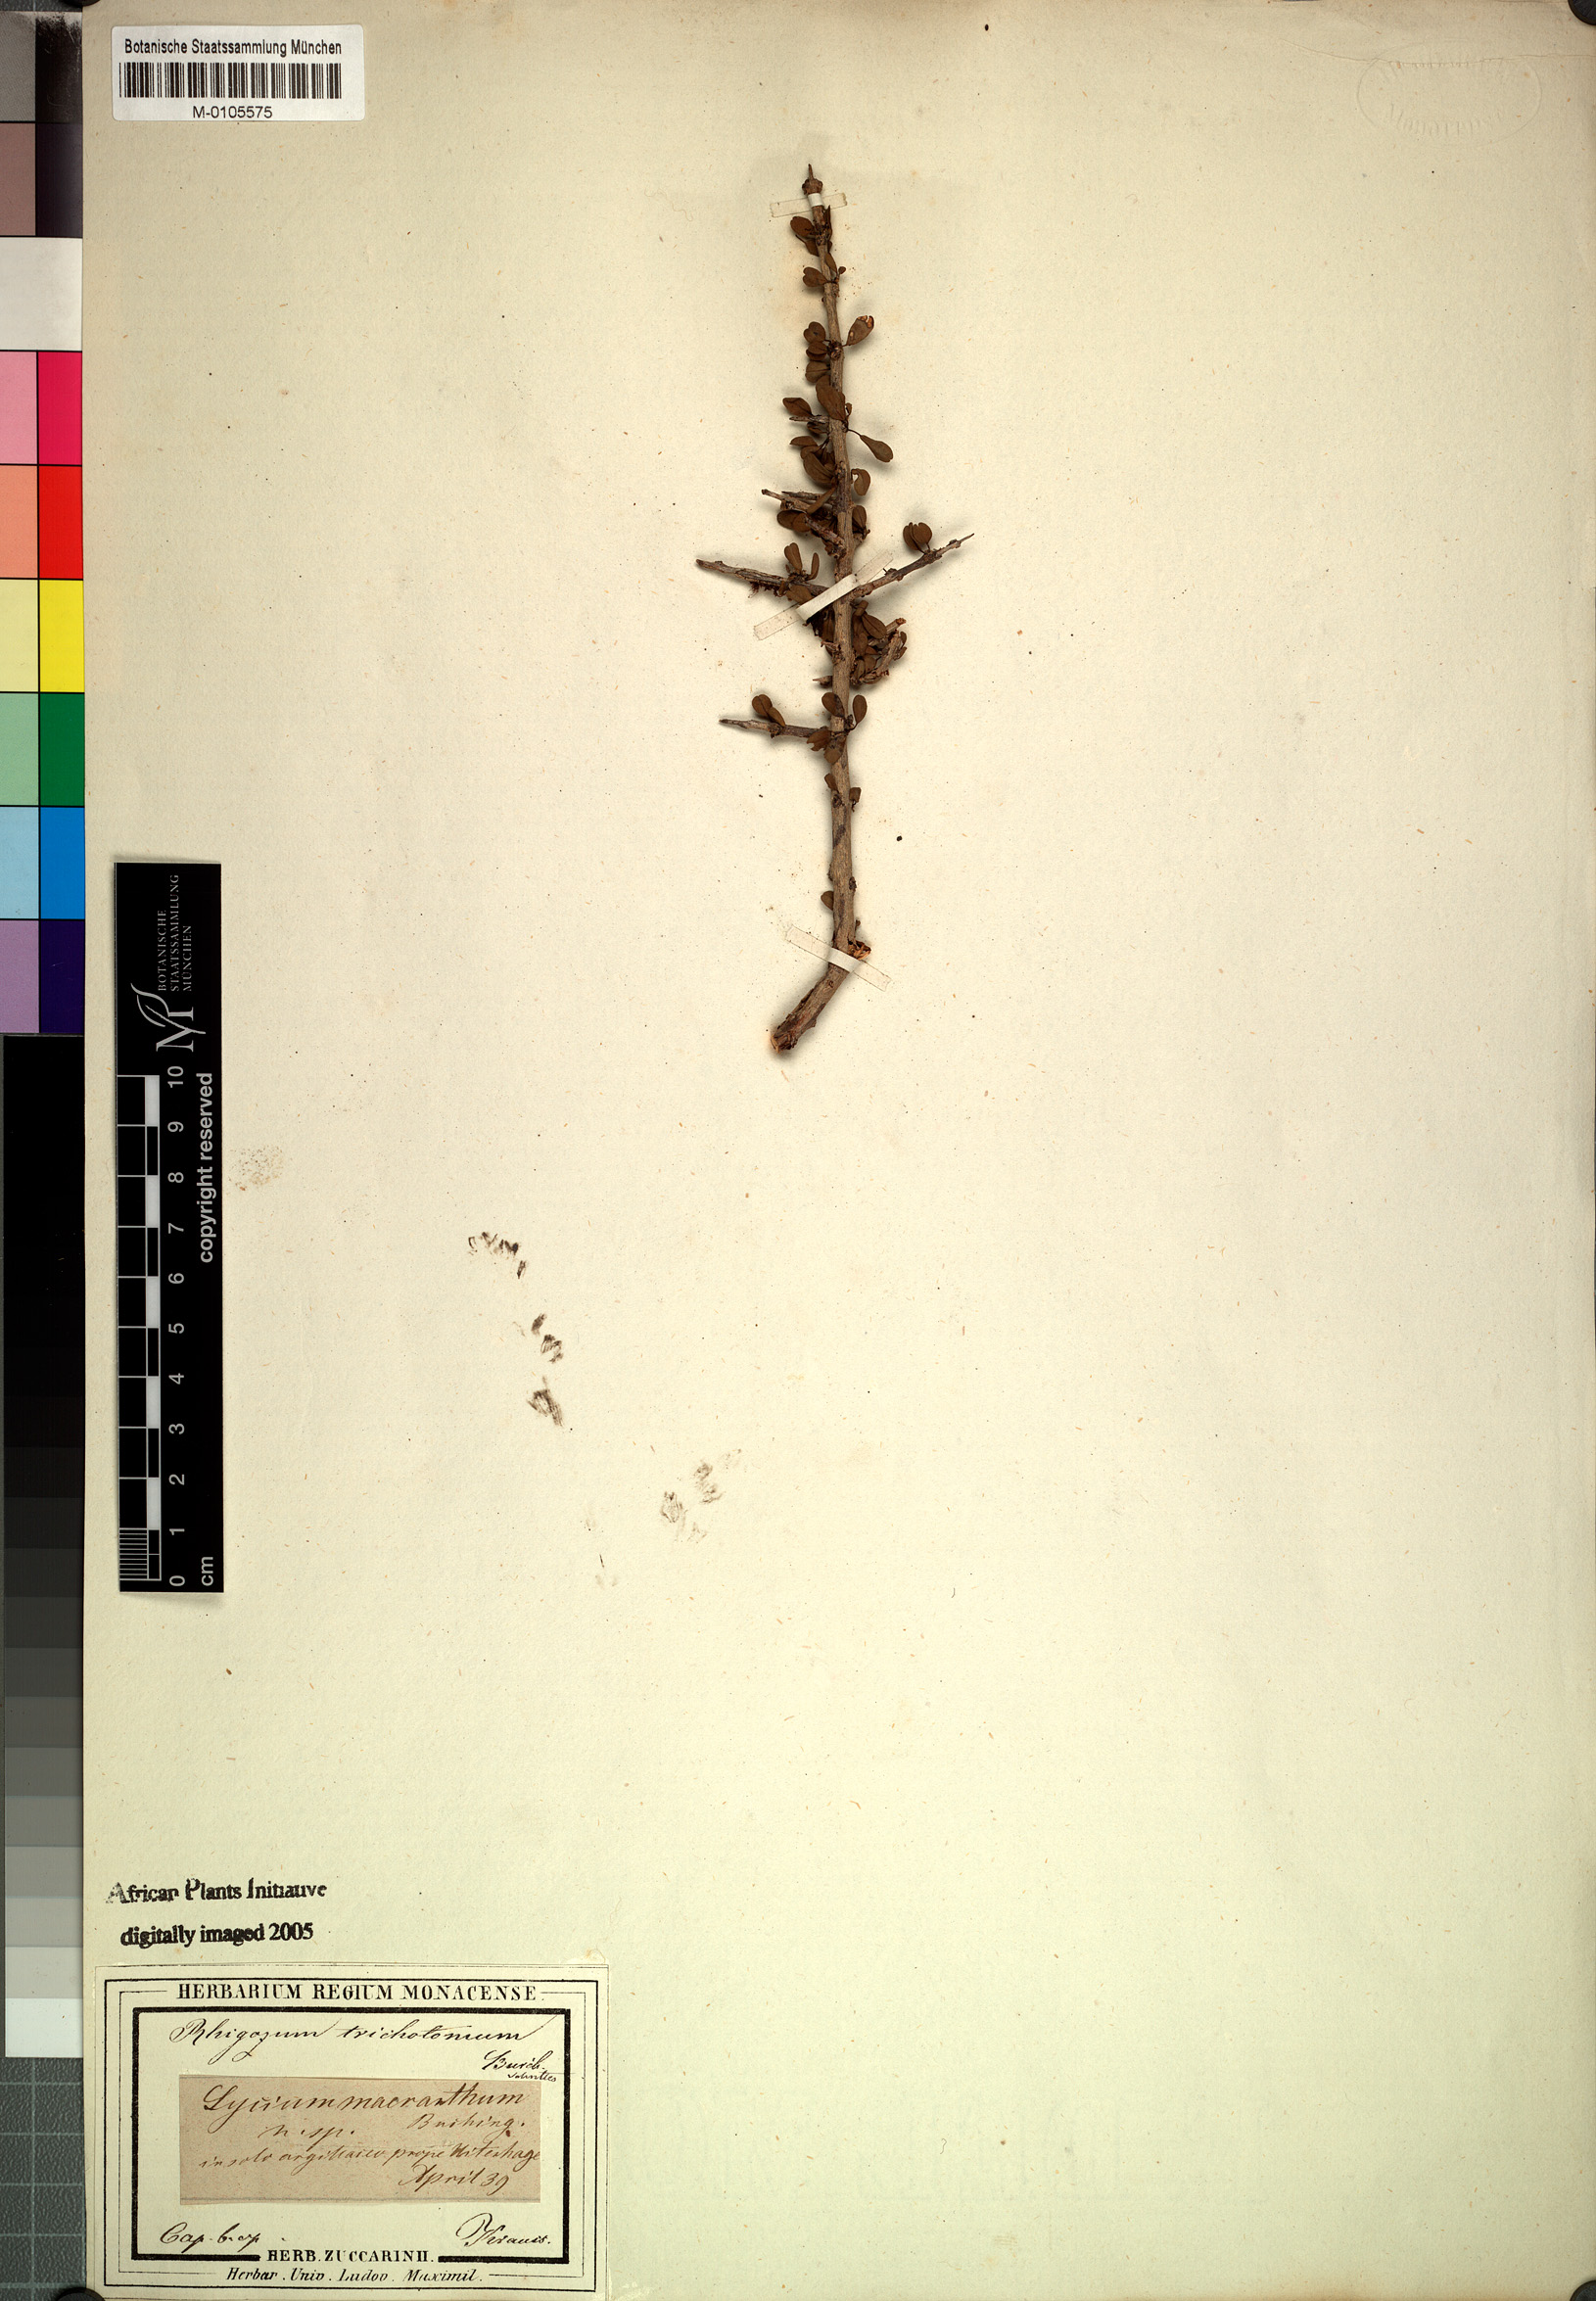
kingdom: Plantae
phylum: Tracheophyta
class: Magnoliopsida
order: Lamiales
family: Bignoniaceae
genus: Rhigozum
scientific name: Rhigozum trichotomum
